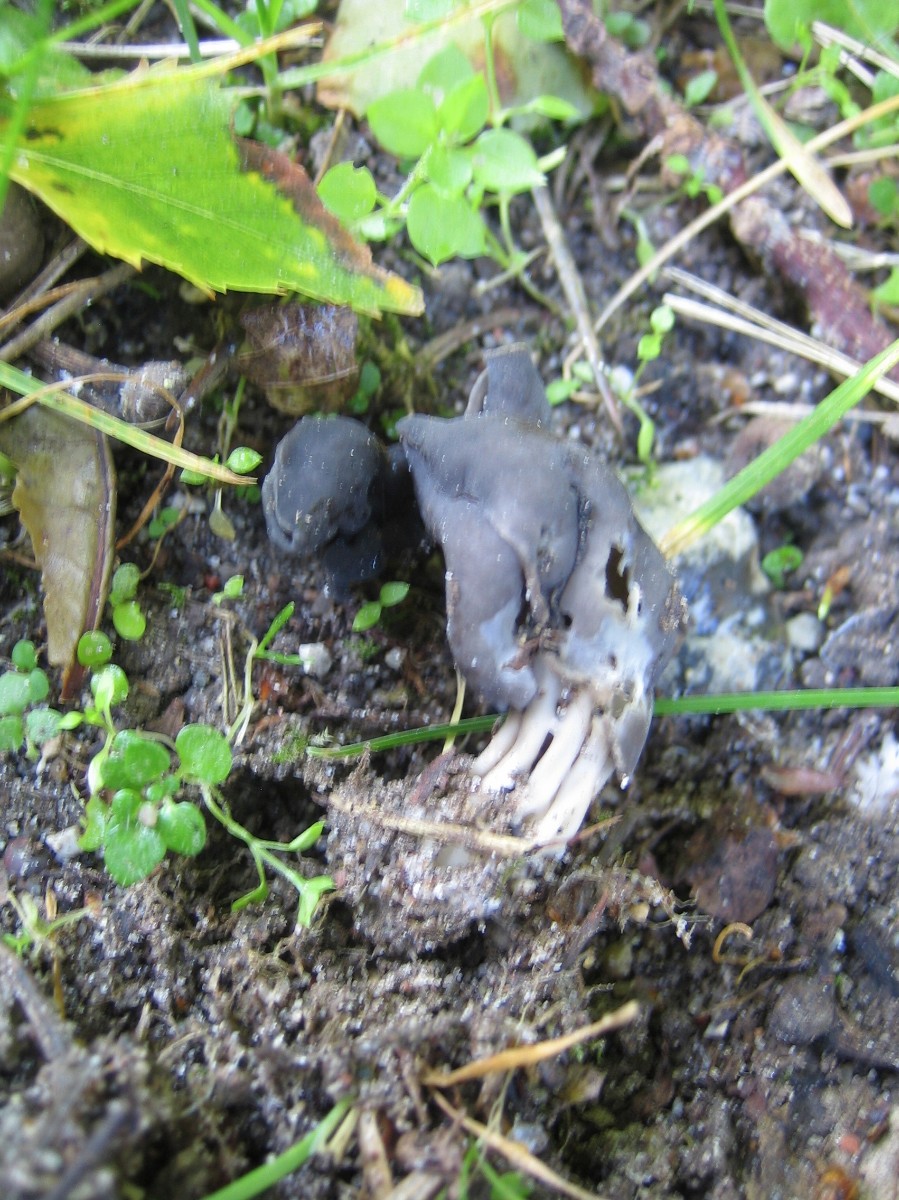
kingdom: Fungi
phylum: Ascomycota
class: Pezizomycetes
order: Pezizales
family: Helvellaceae
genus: Helvella
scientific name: Helvella lacunosa
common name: grubet foldhat
